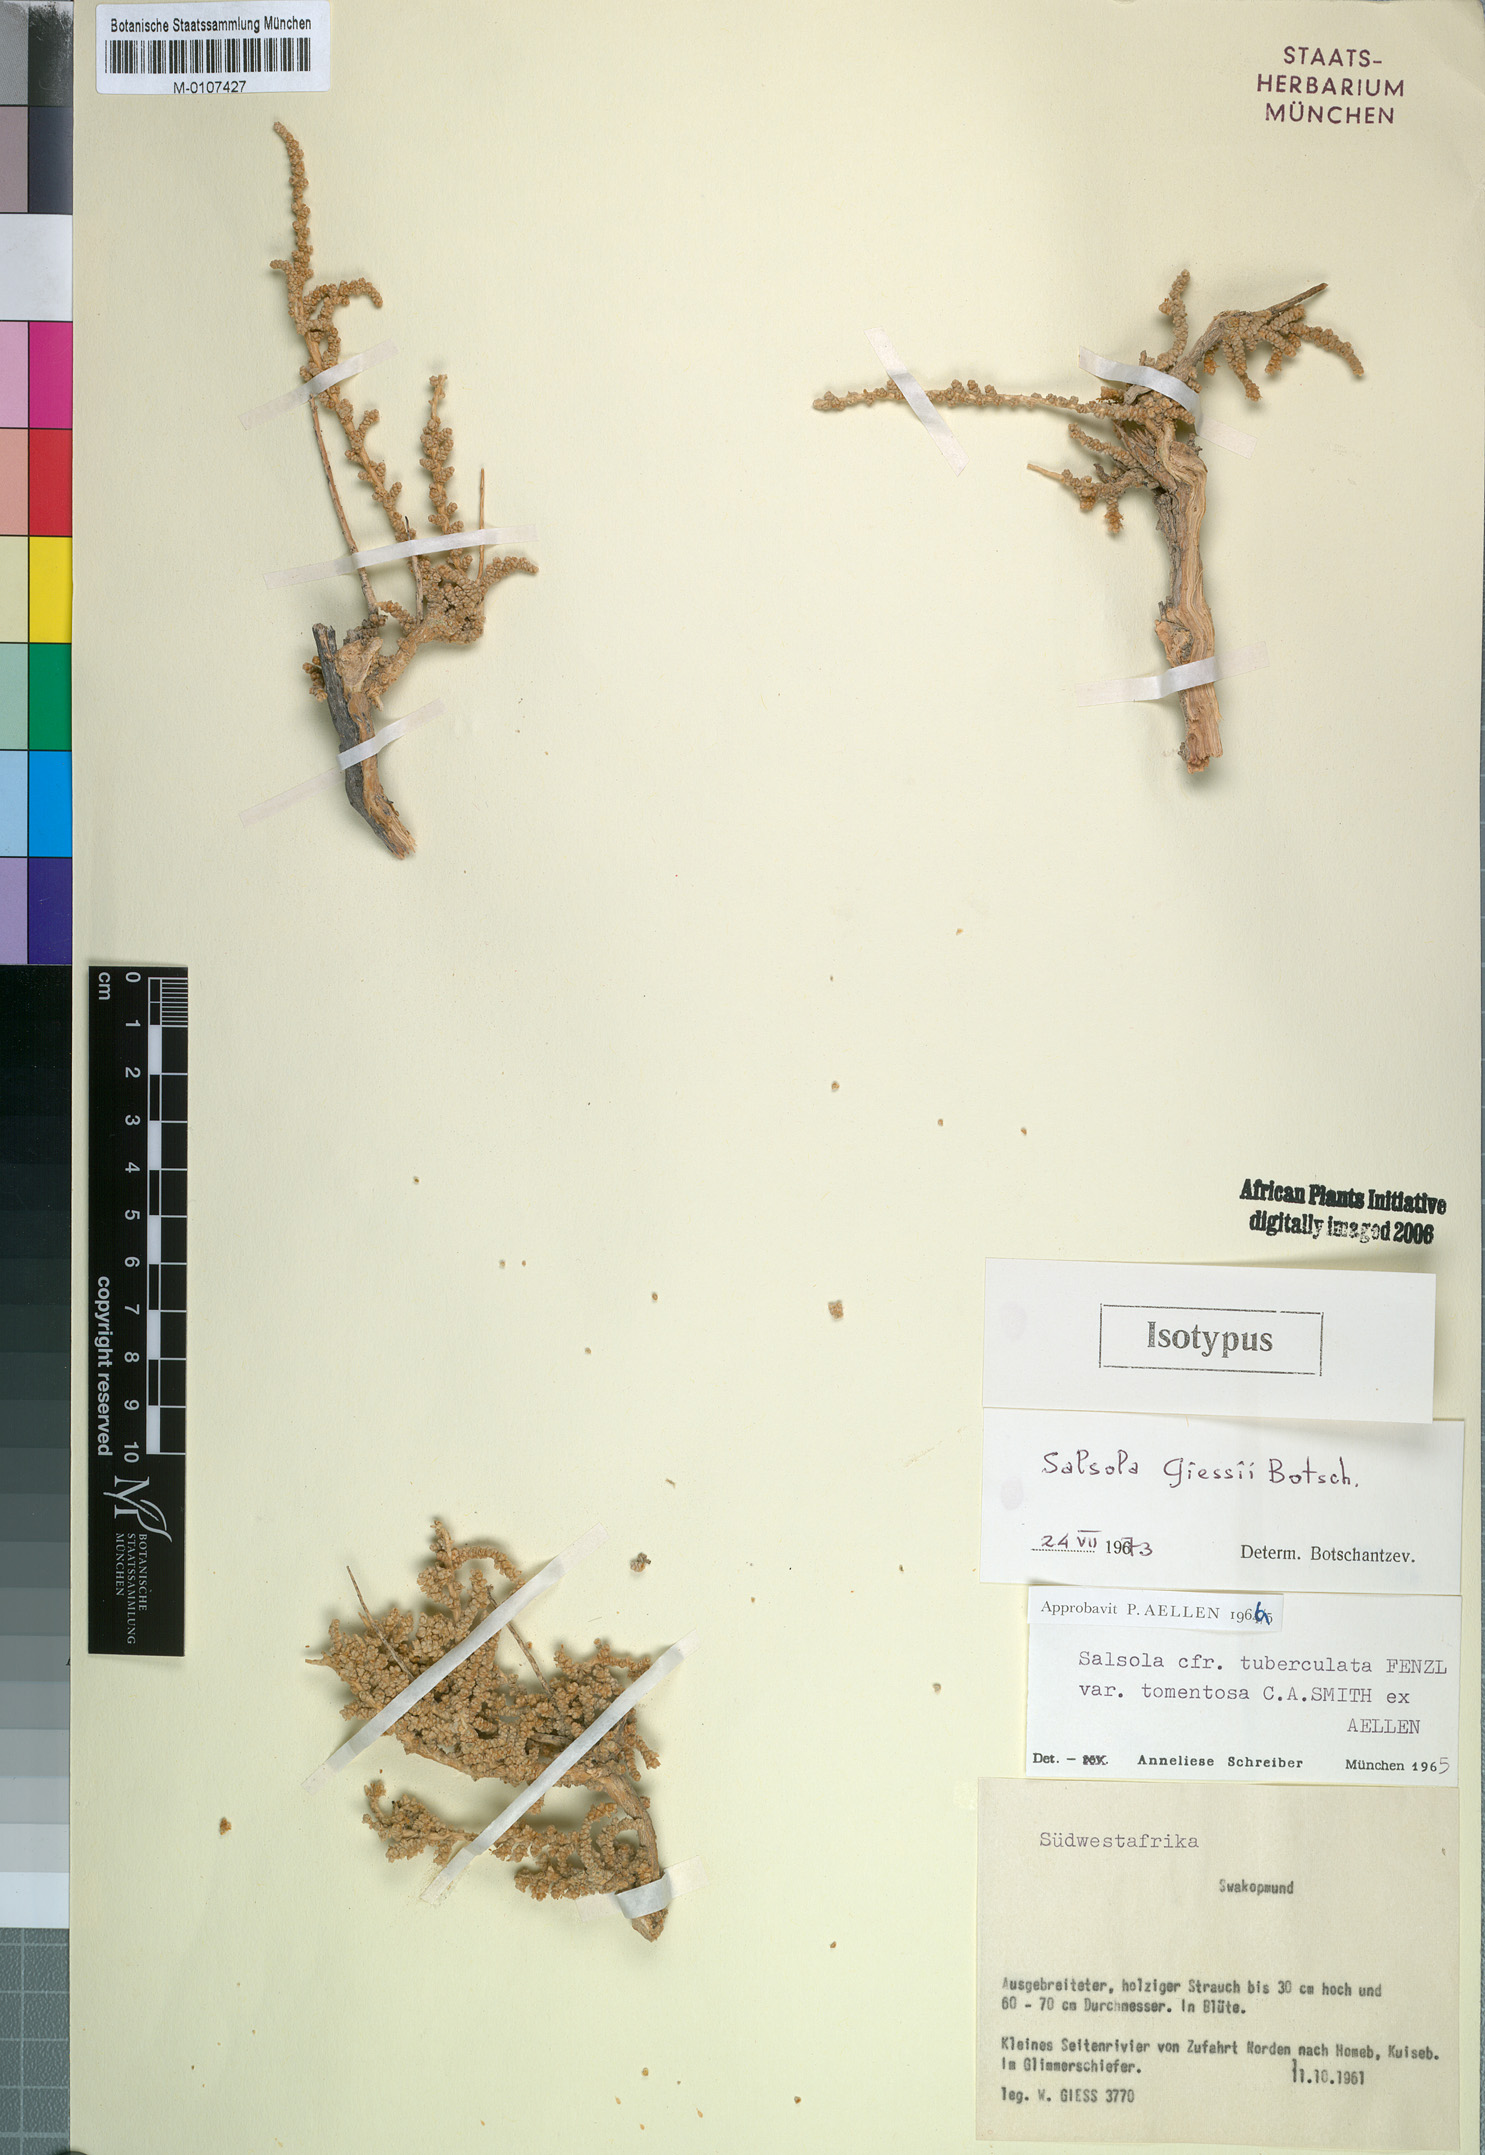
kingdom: Plantae
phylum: Tracheophyta
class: Magnoliopsida
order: Caryophyllales
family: Amaranthaceae
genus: Caroxylon
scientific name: Caroxylon giessii
